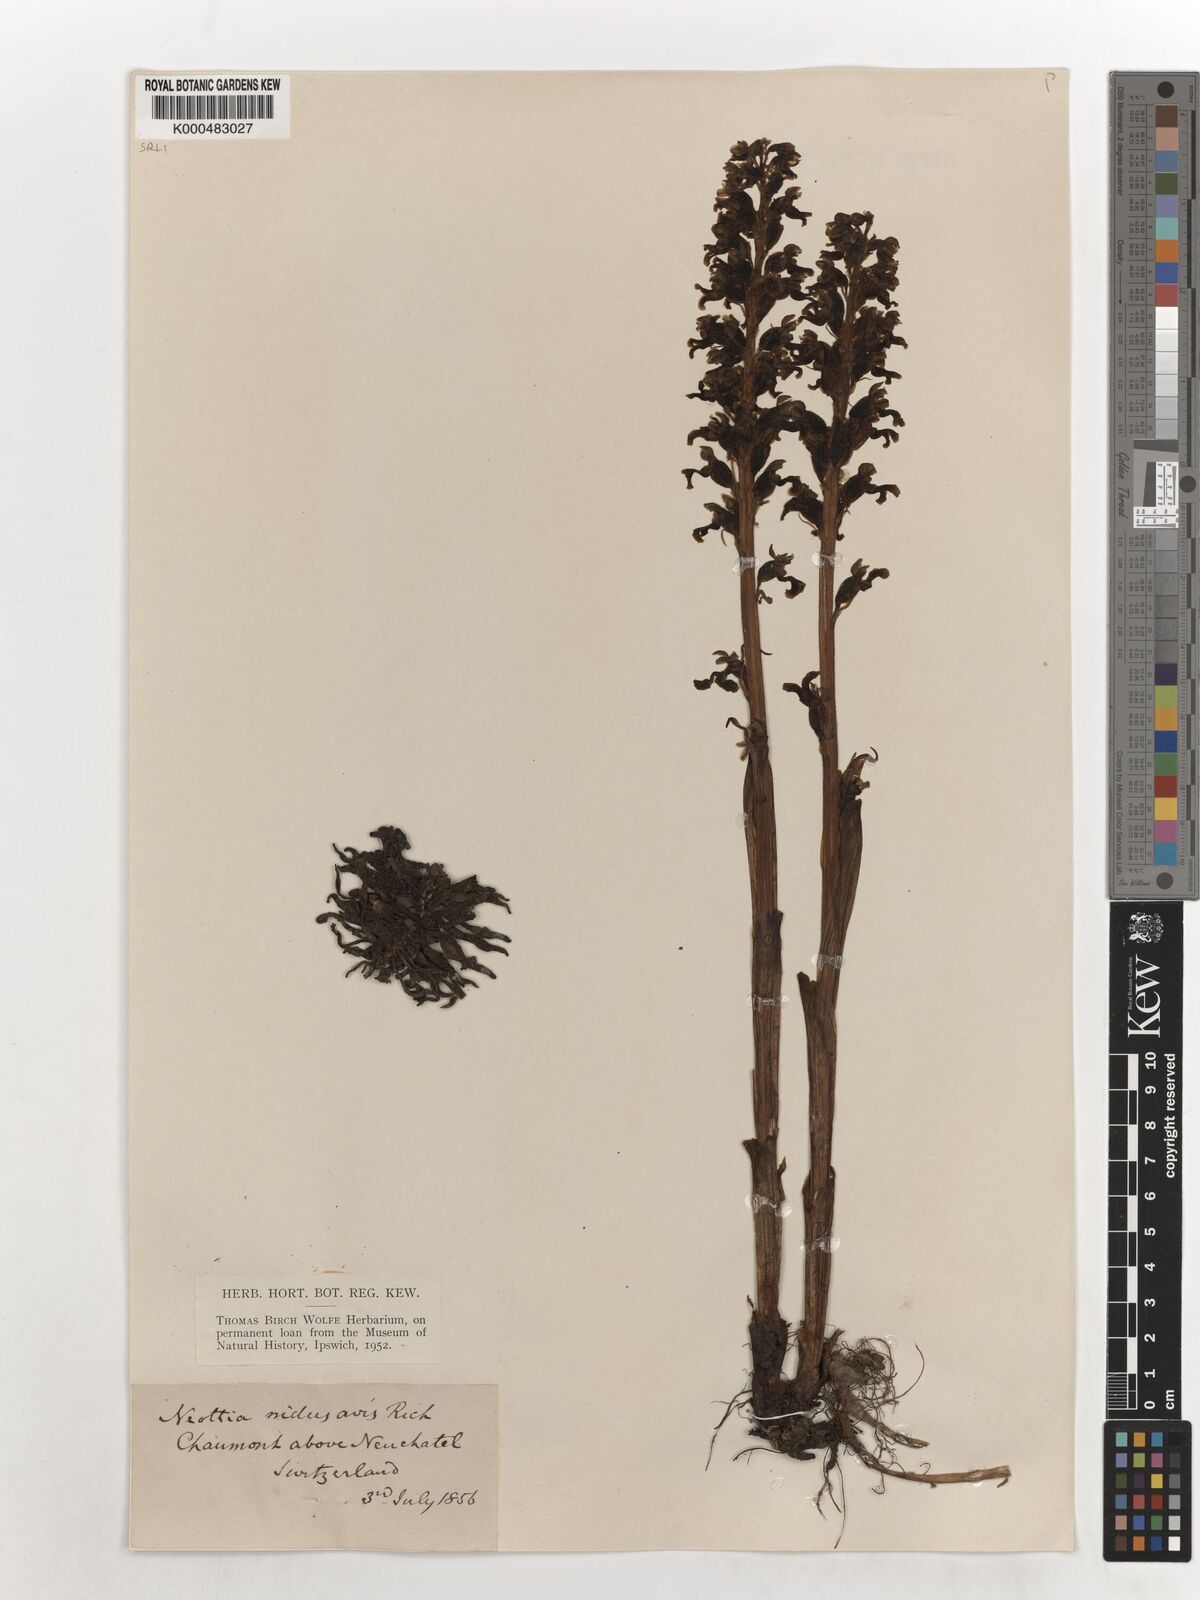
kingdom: Plantae
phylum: Tracheophyta
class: Liliopsida
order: Asparagales
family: Orchidaceae
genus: Neottia
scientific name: Neottia nidus-avis
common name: Bird's-nest orchid
